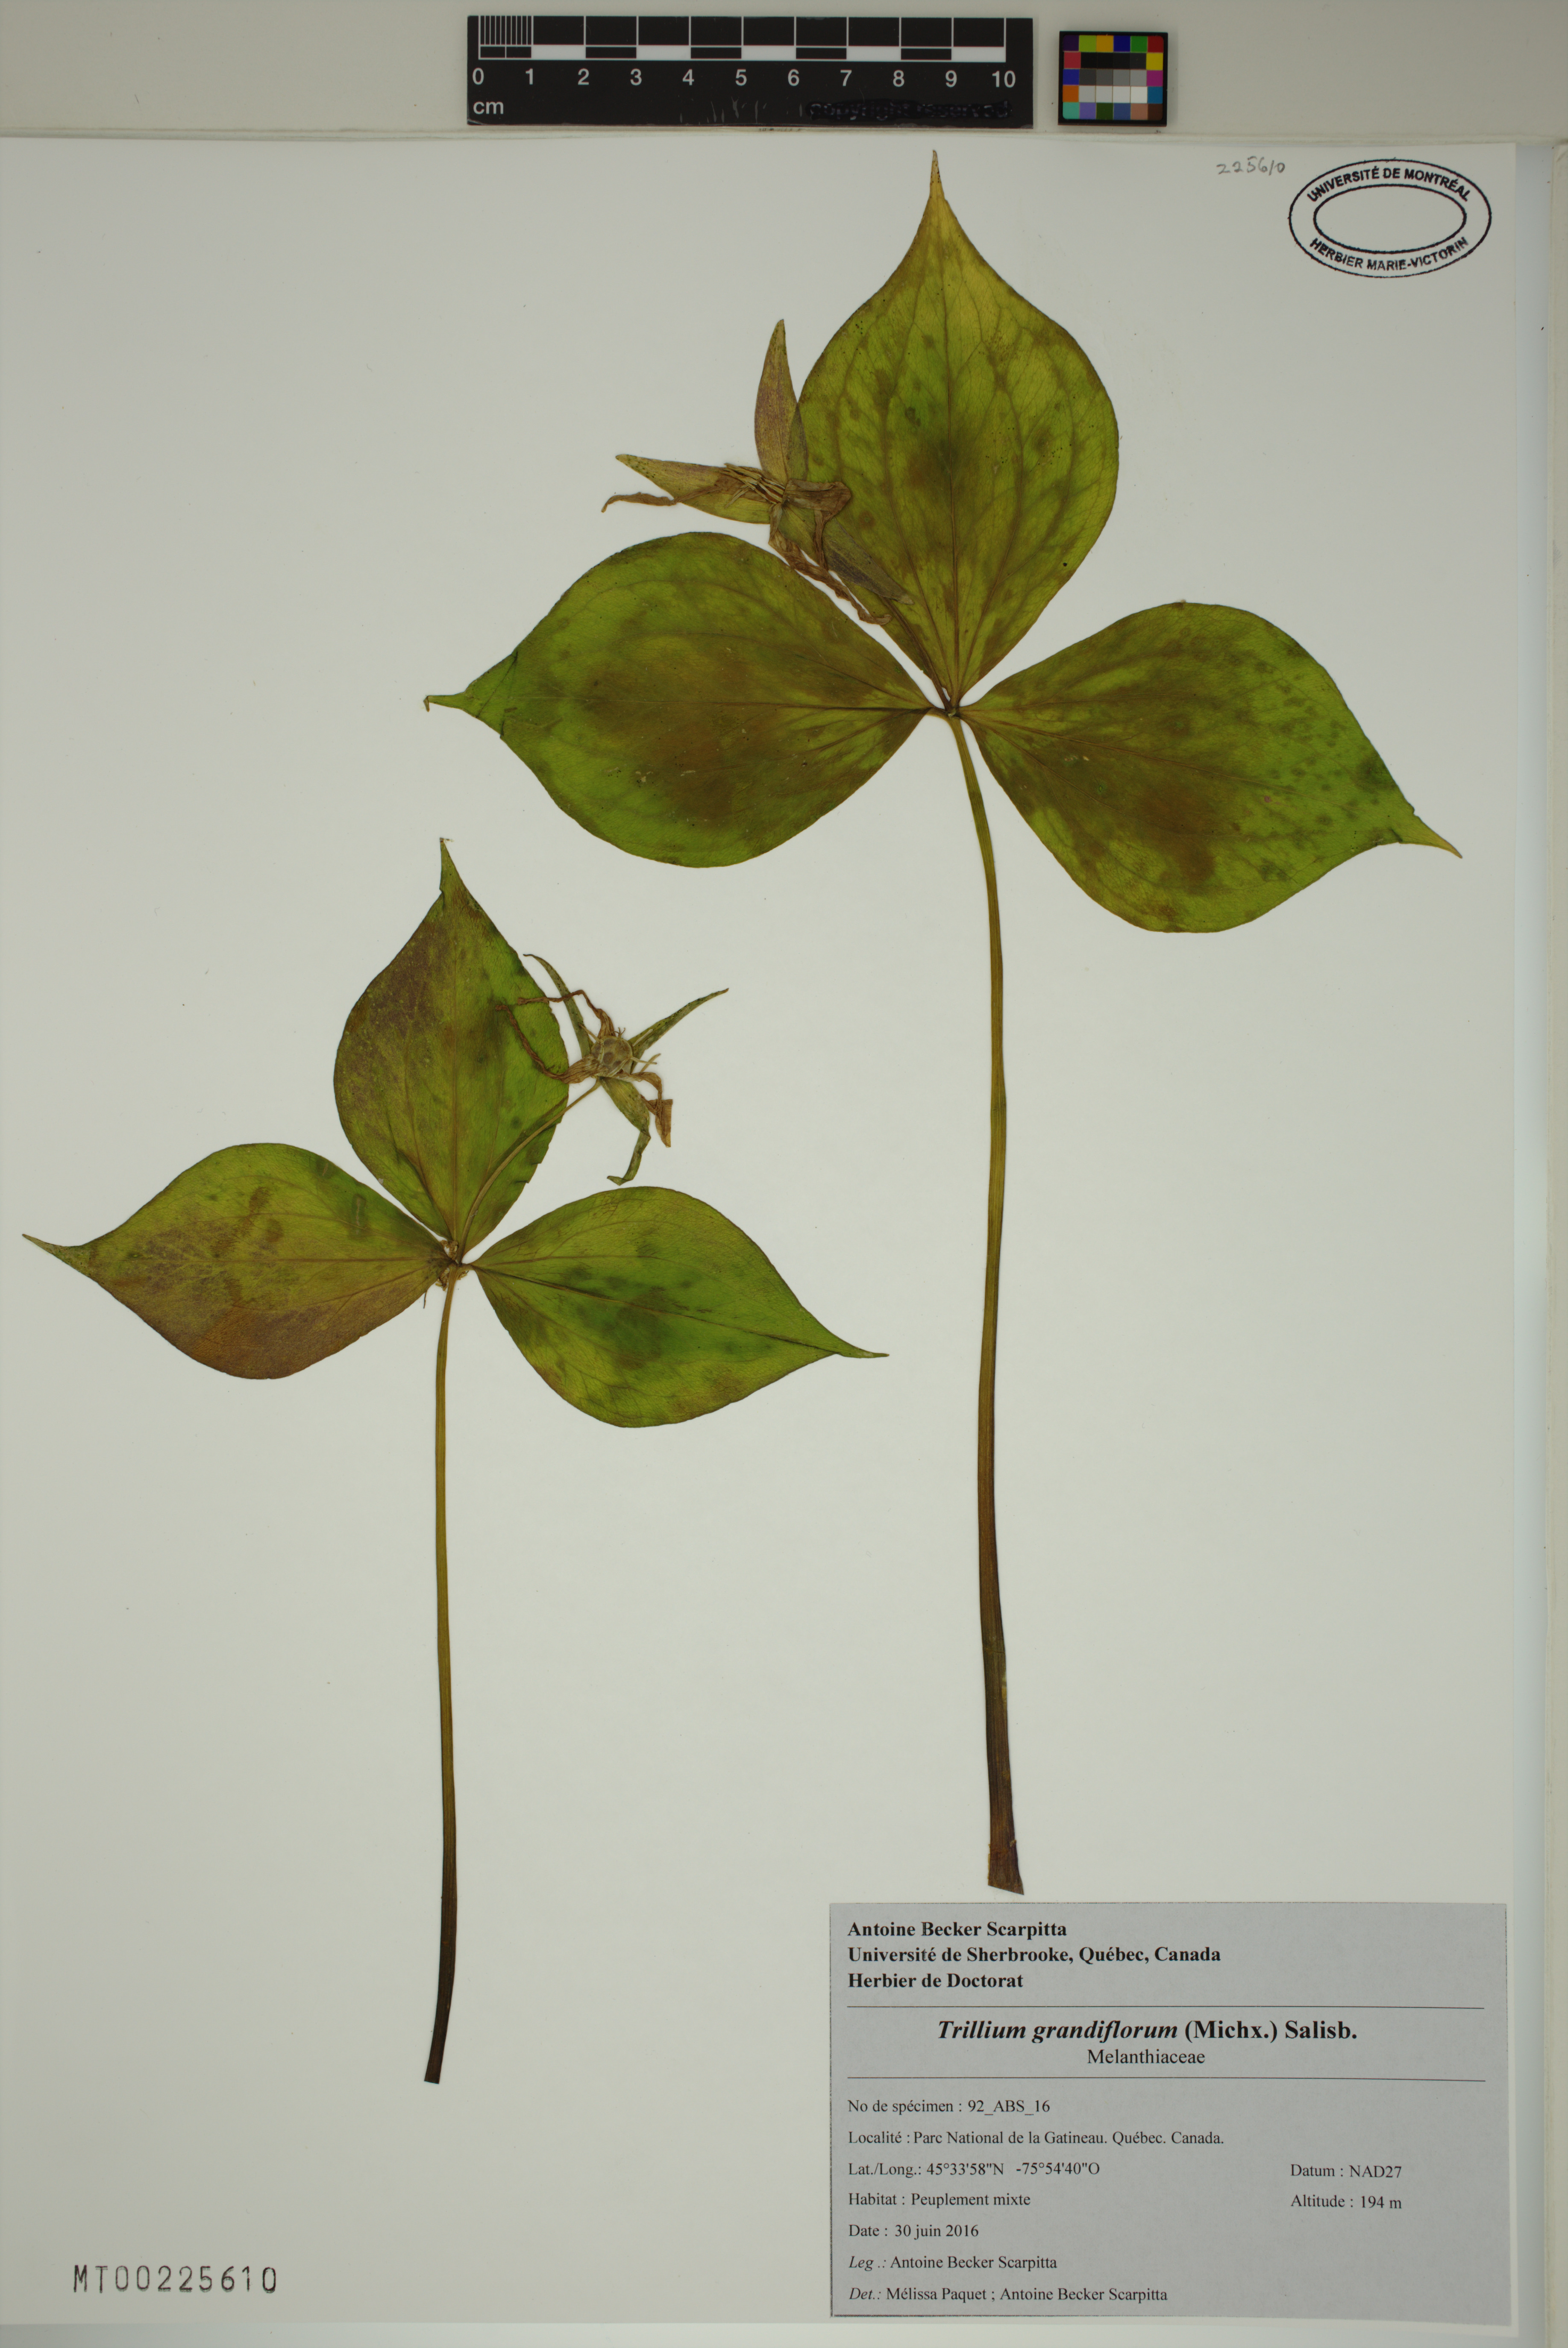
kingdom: Plantae
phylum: Tracheophyta
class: Liliopsida
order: Liliales
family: Melanthiaceae
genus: Trillium
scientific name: Trillium grandiflorum
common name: Great white trillium
